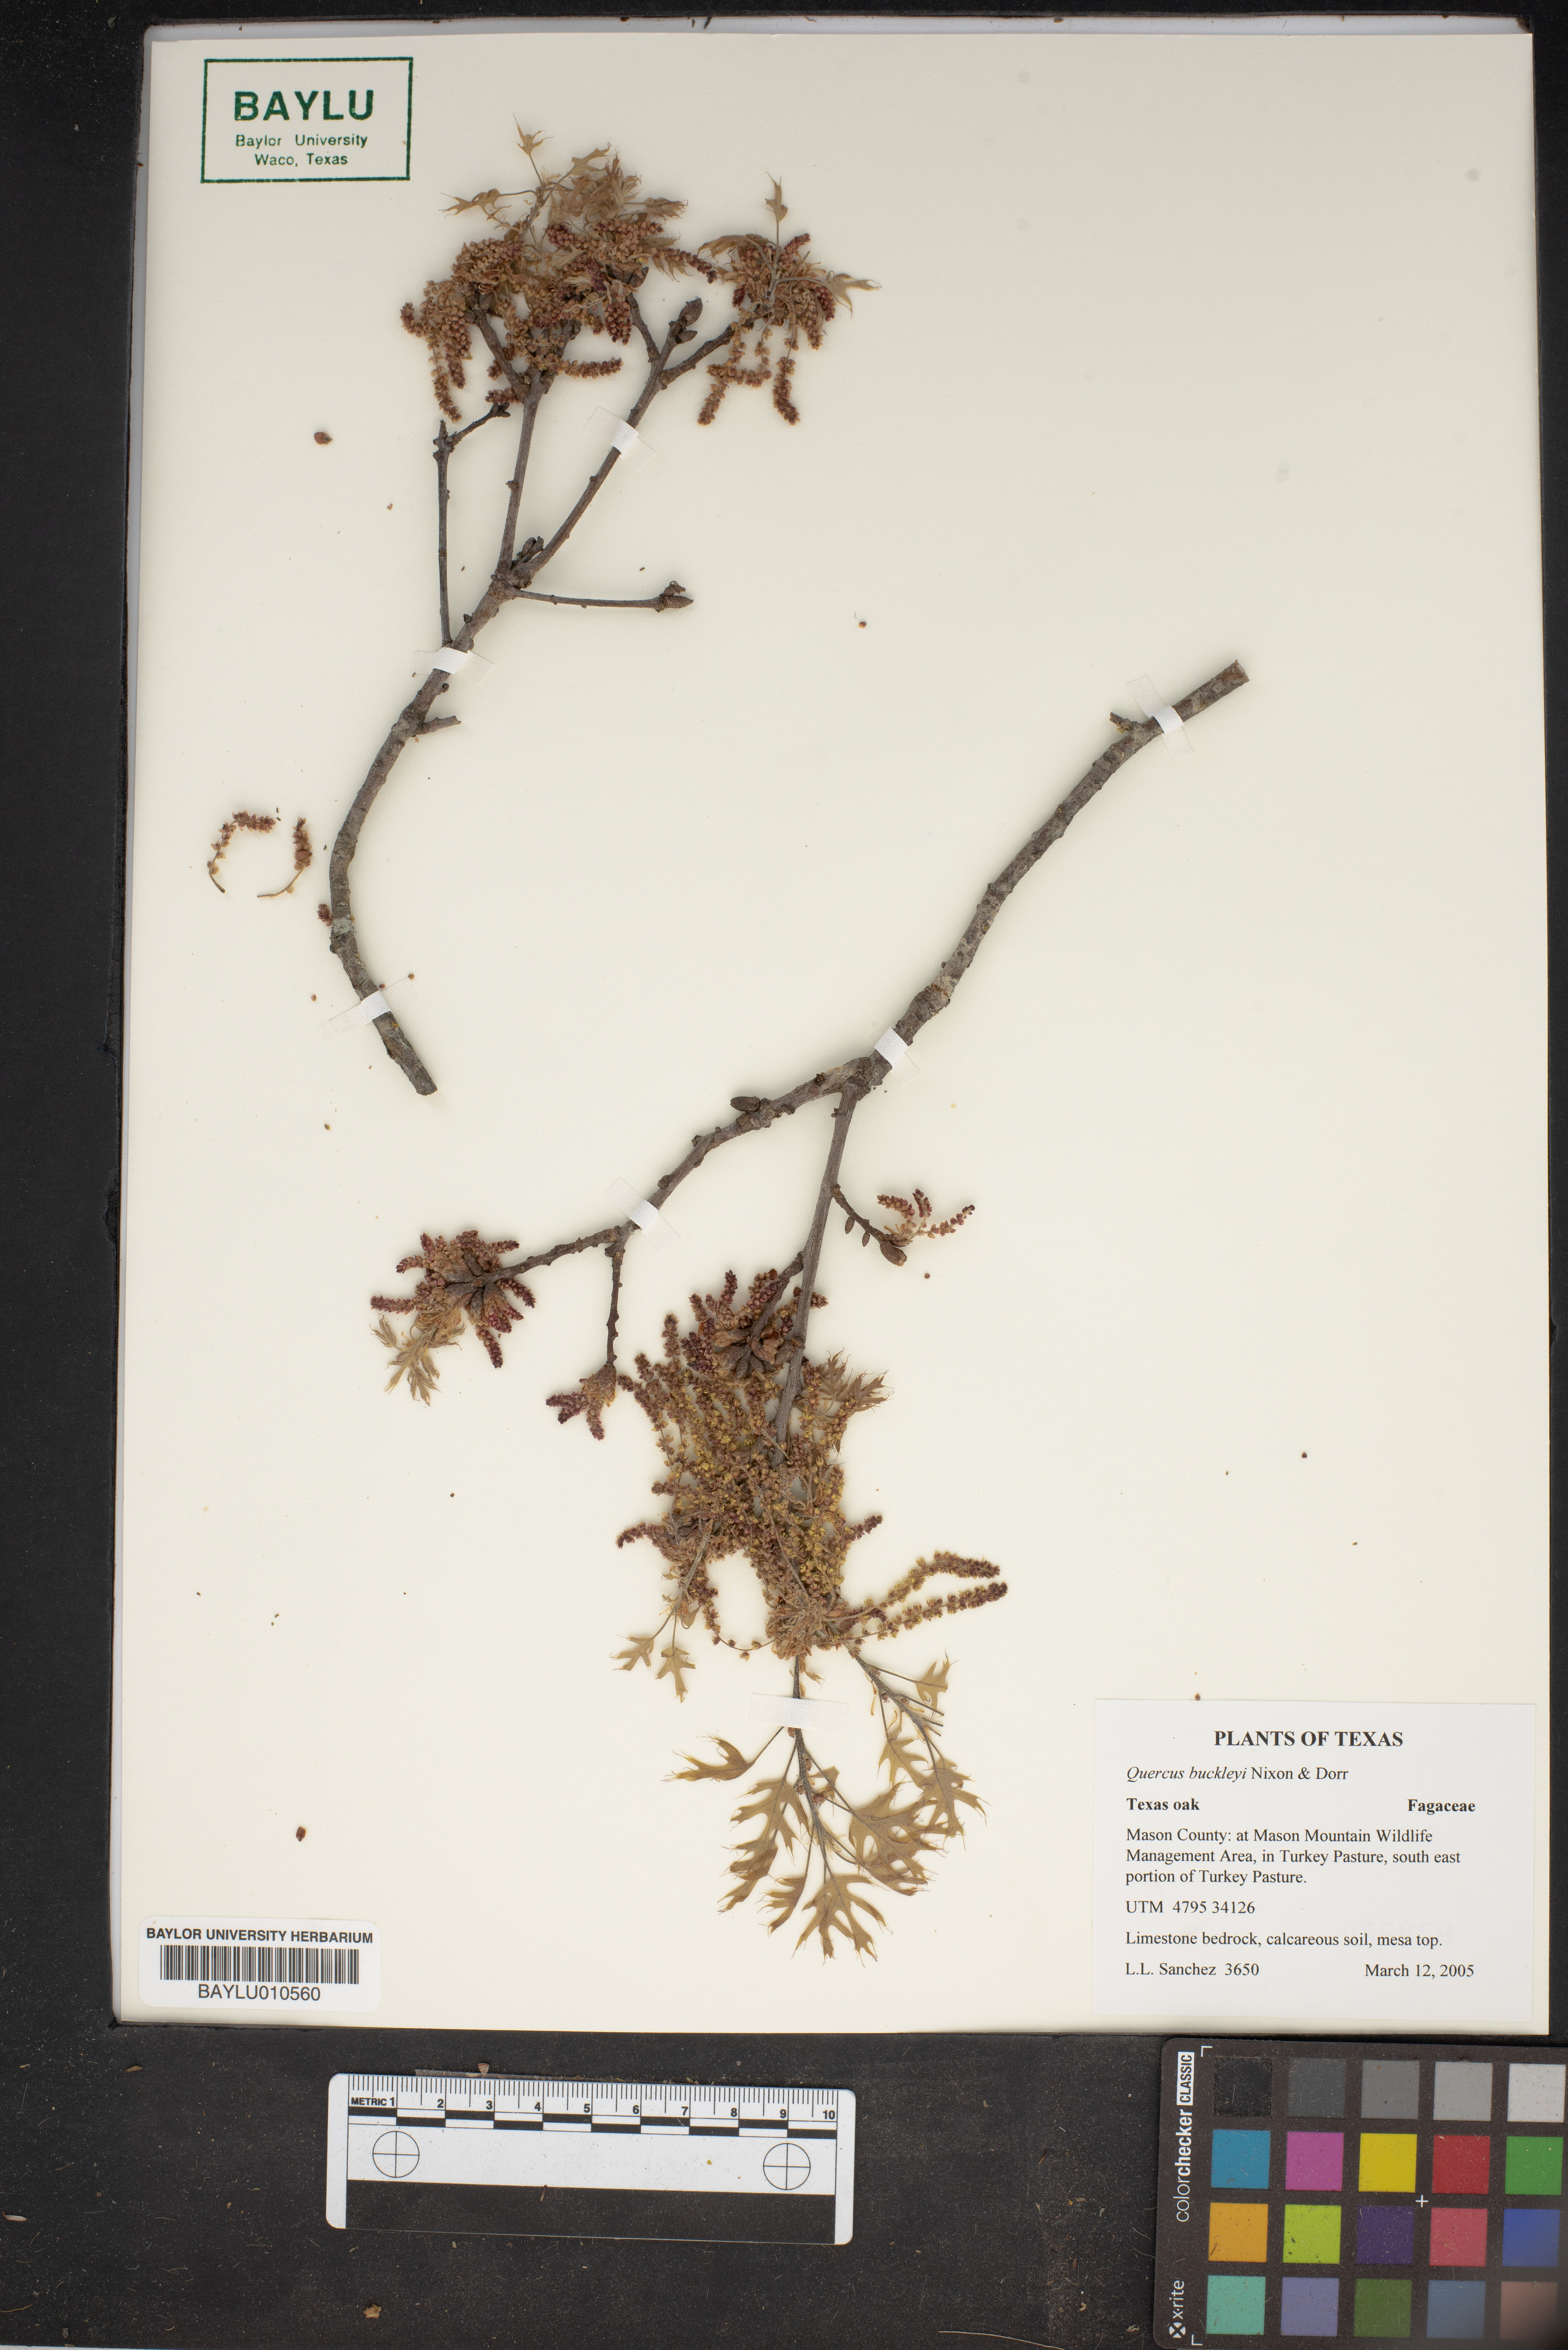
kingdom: Plantae
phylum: Tracheophyta
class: Magnoliopsida
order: Fagales
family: Fagaceae
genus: Quercus
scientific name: Quercus buckleyi
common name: Buckley oak
